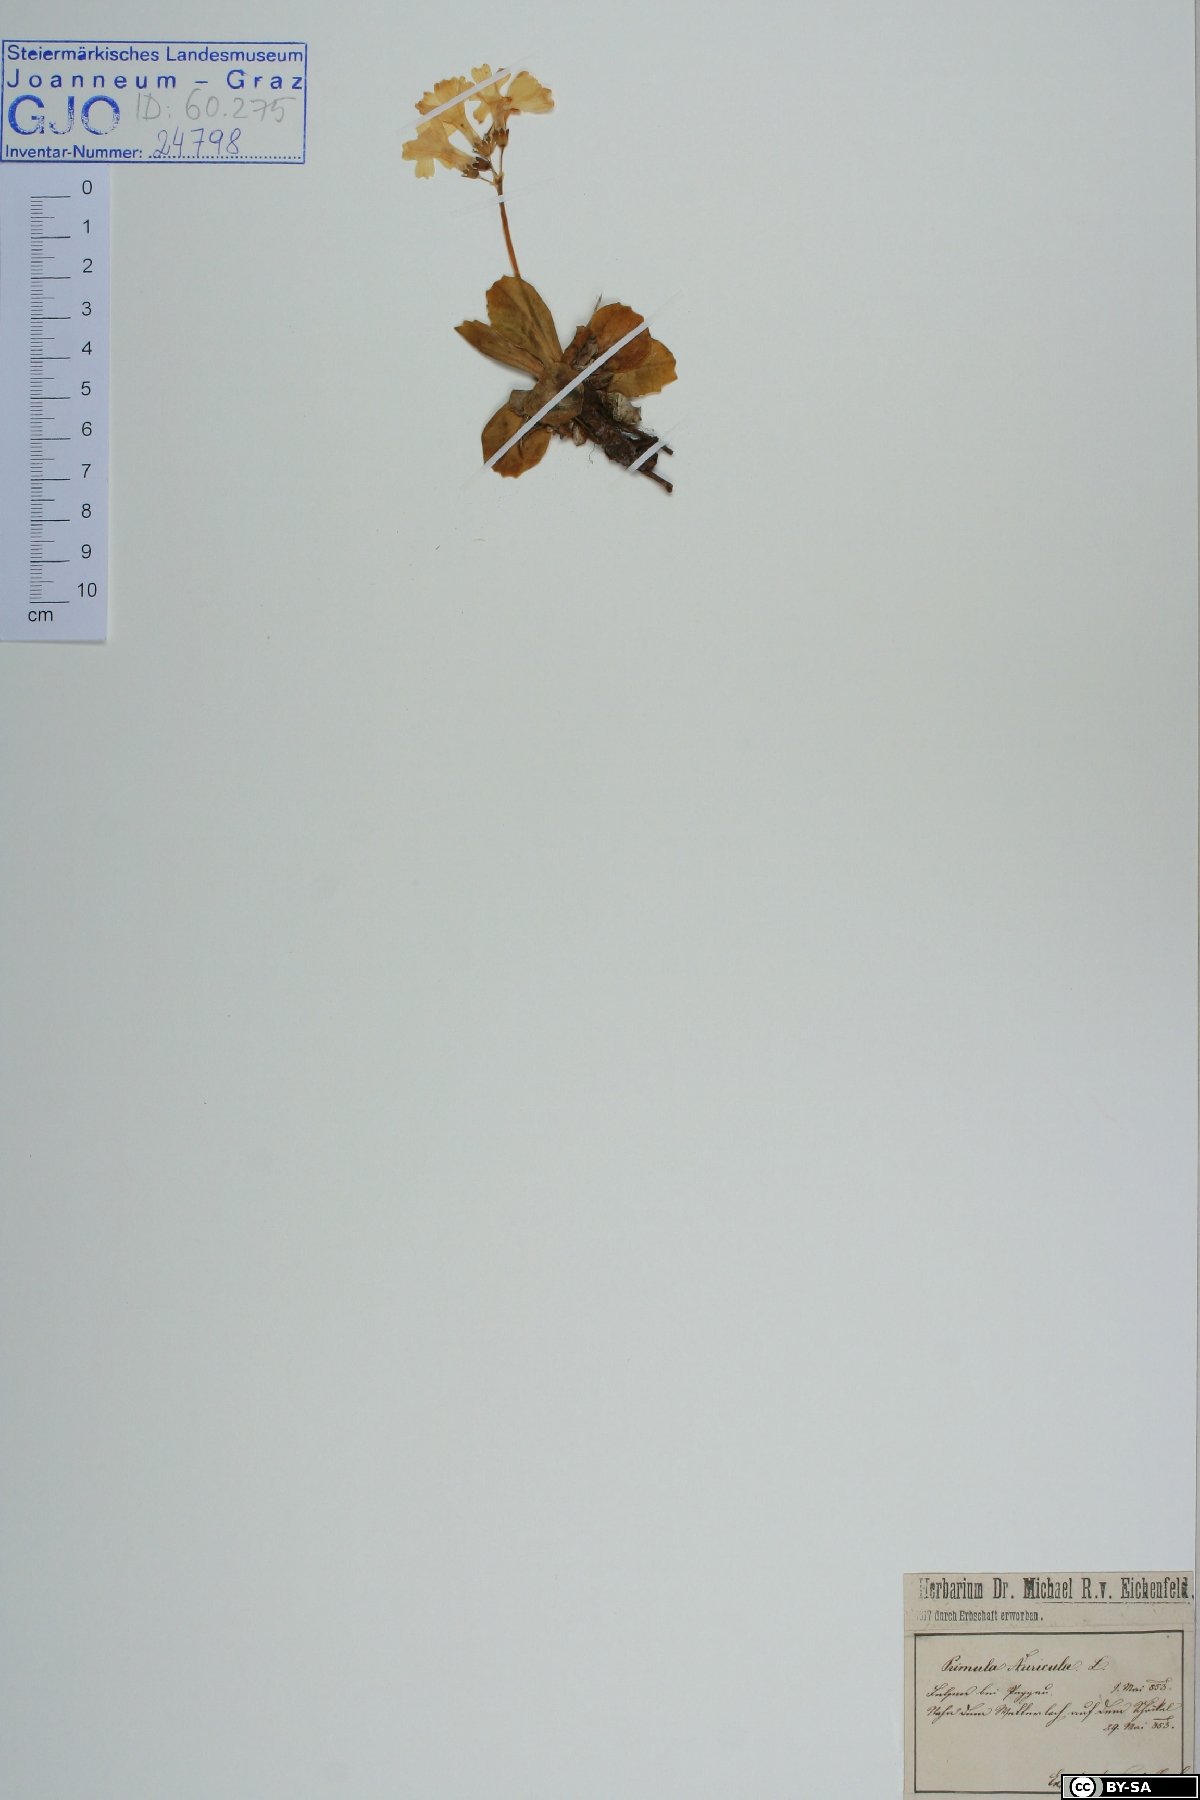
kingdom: Plantae
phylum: Tracheophyta
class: Magnoliopsida
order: Ericales
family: Primulaceae
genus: Primula
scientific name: Primula auricula
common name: Auricula
